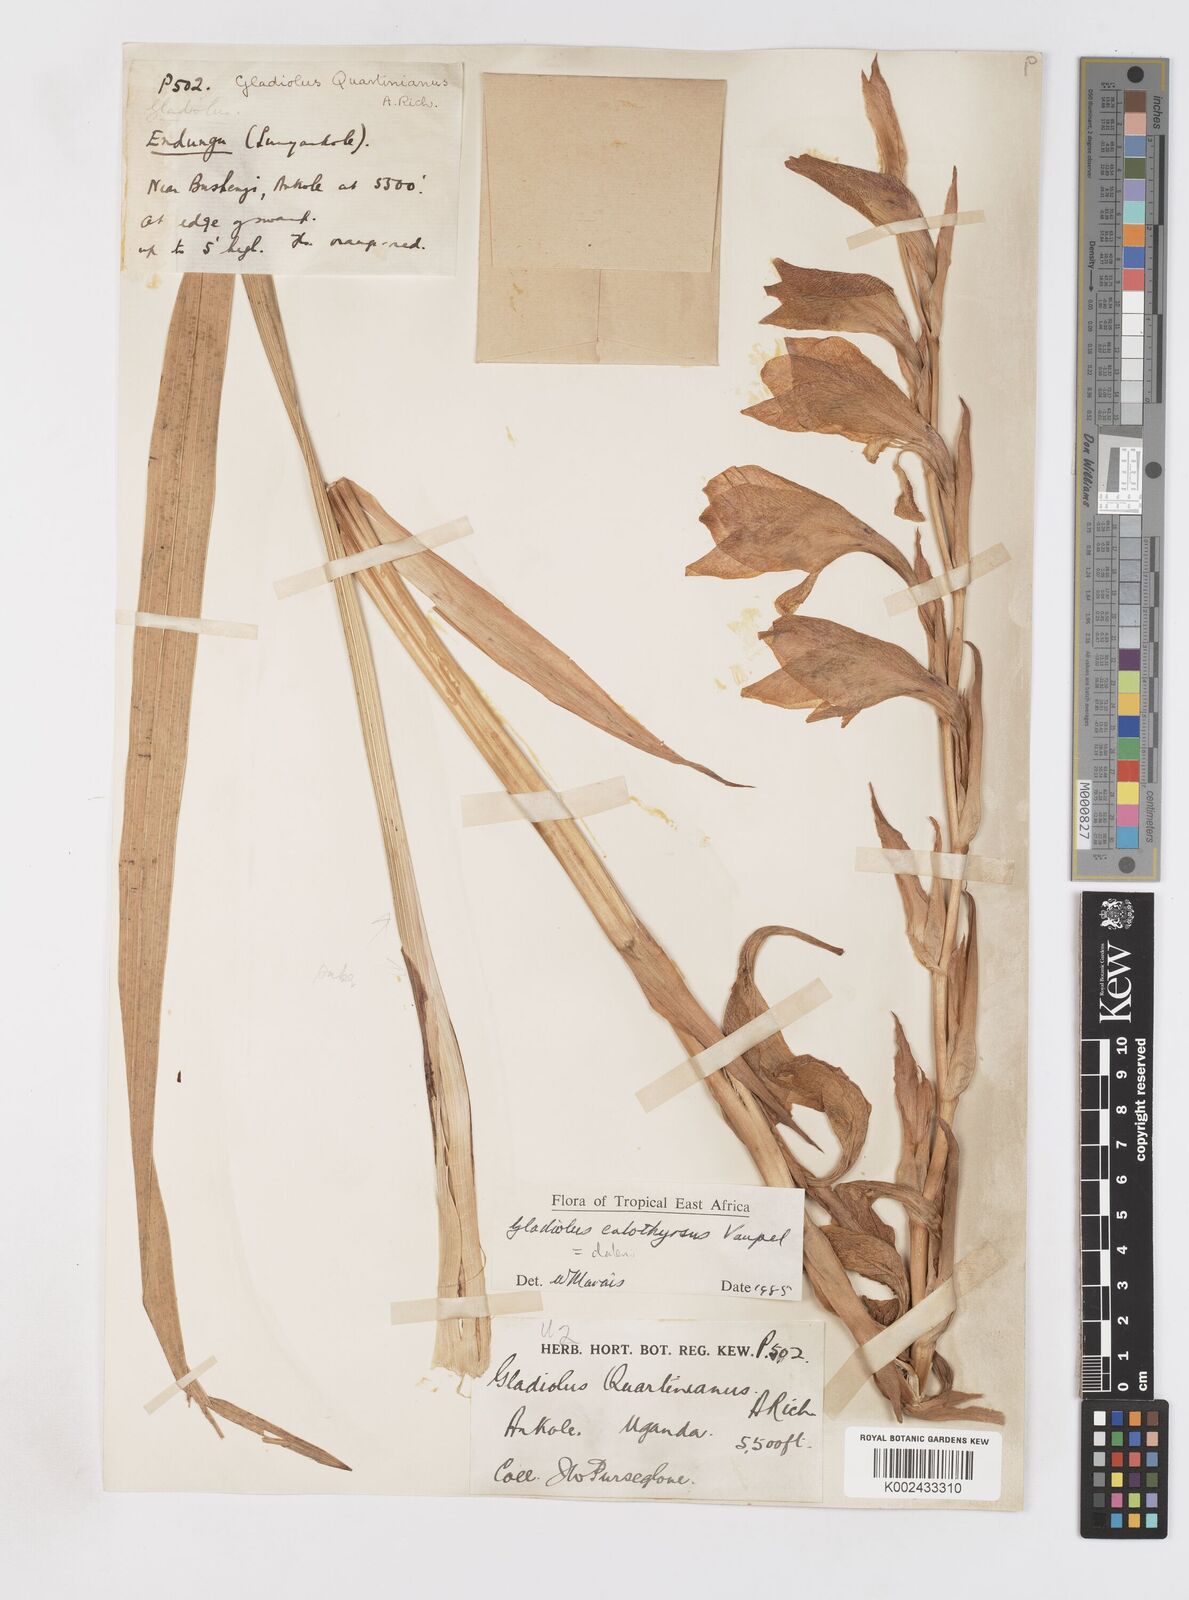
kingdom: Plantae
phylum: Tracheophyta
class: Liliopsida
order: Asparagales
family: Iridaceae
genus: Gladiolus
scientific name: Gladiolus dalenii
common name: Cornflag
